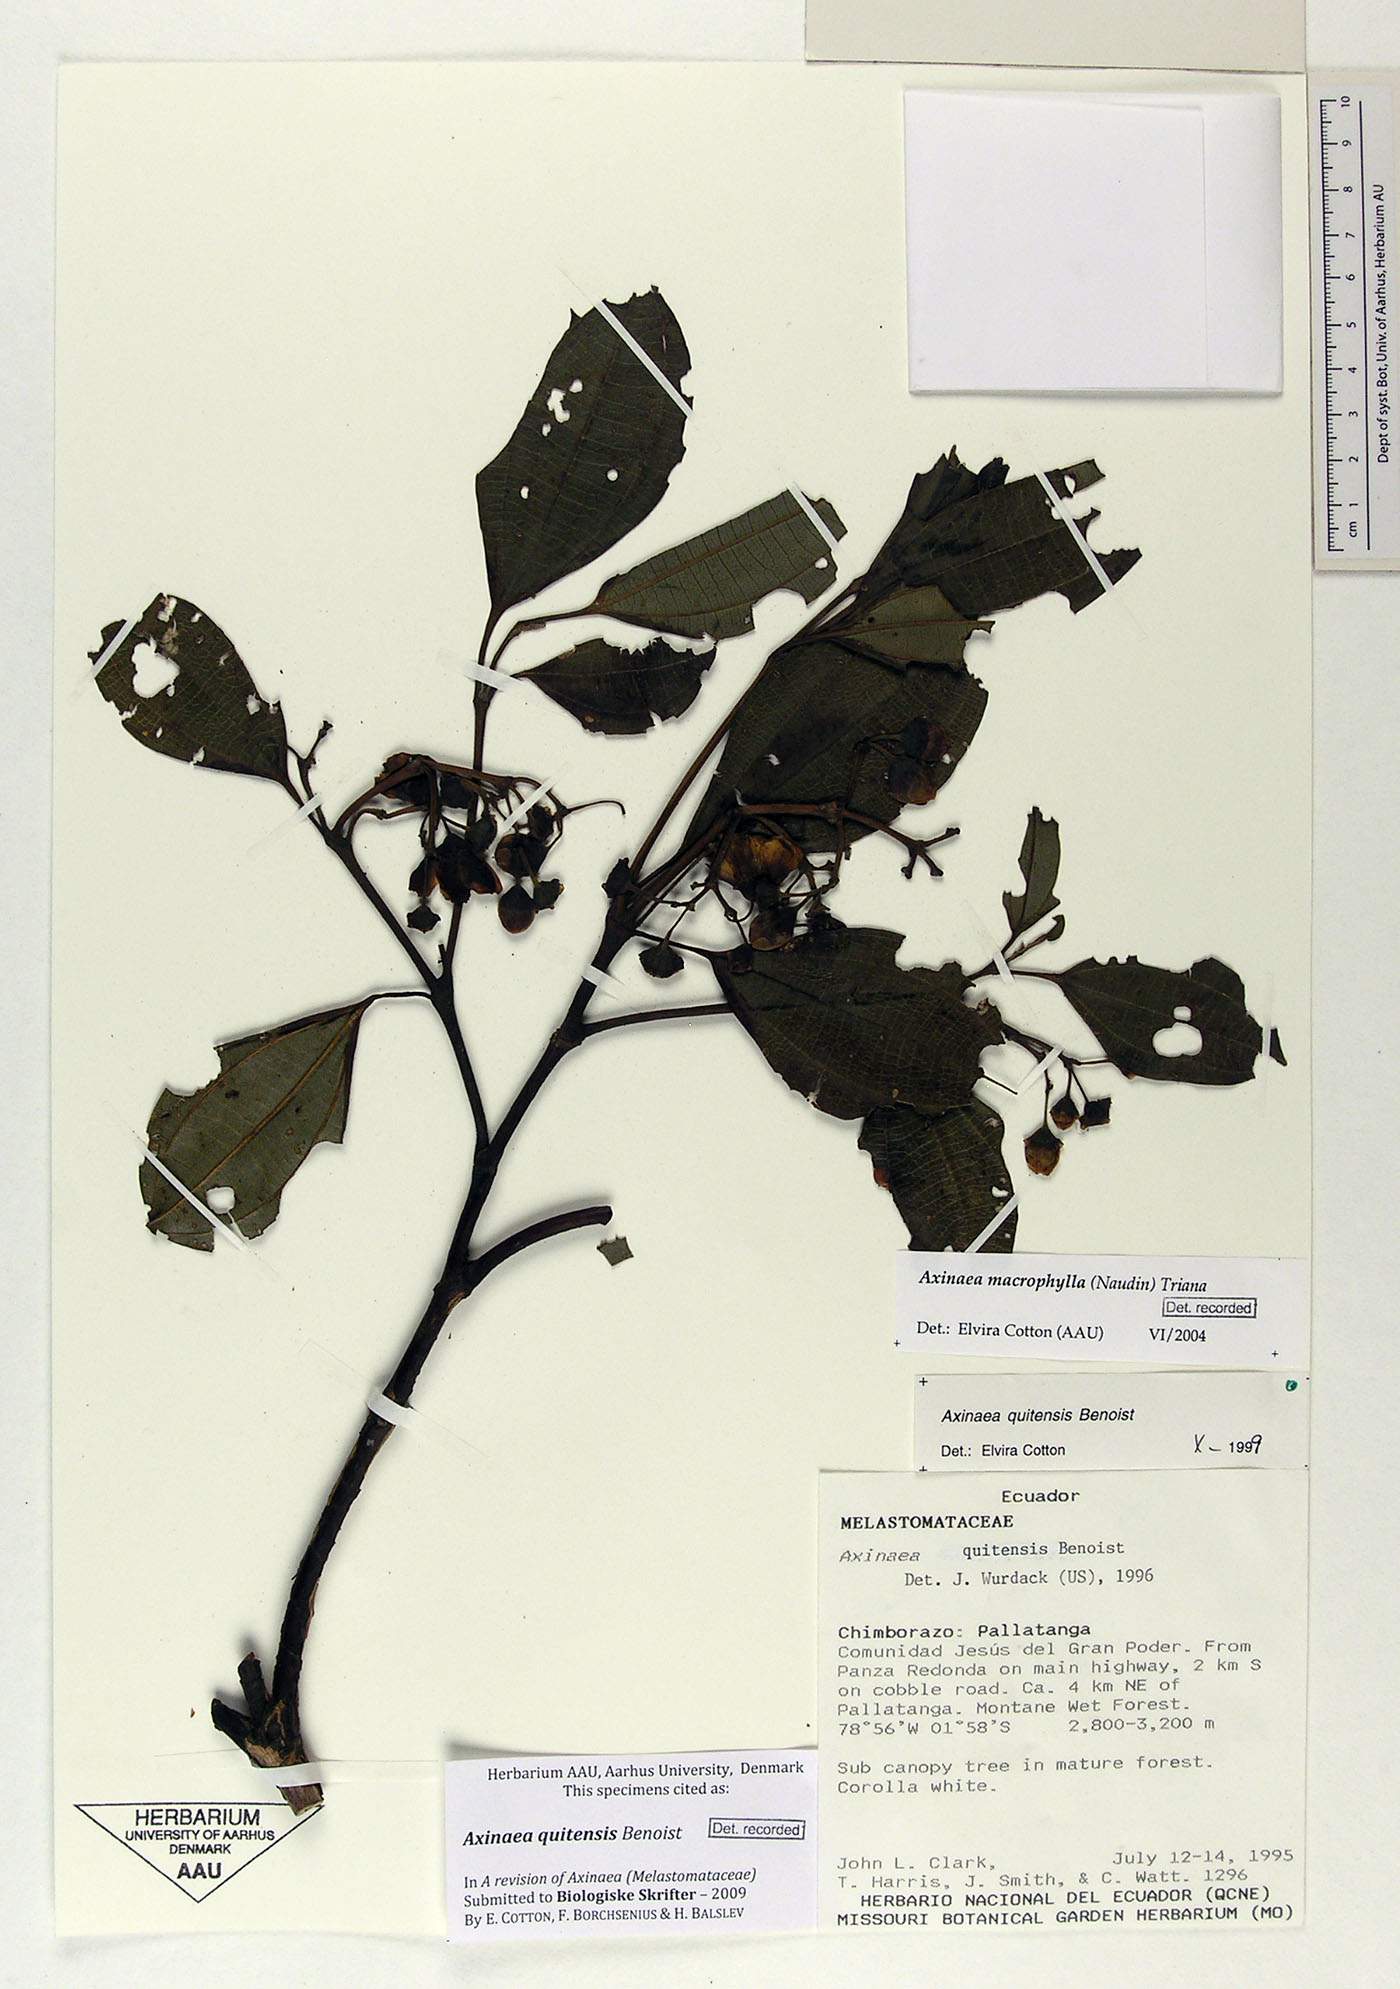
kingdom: Plantae
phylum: Tracheophyta
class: Magnoliopsida
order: Myrtales
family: Melastomataceae
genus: Axinaea
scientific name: Axinaea quitensis
